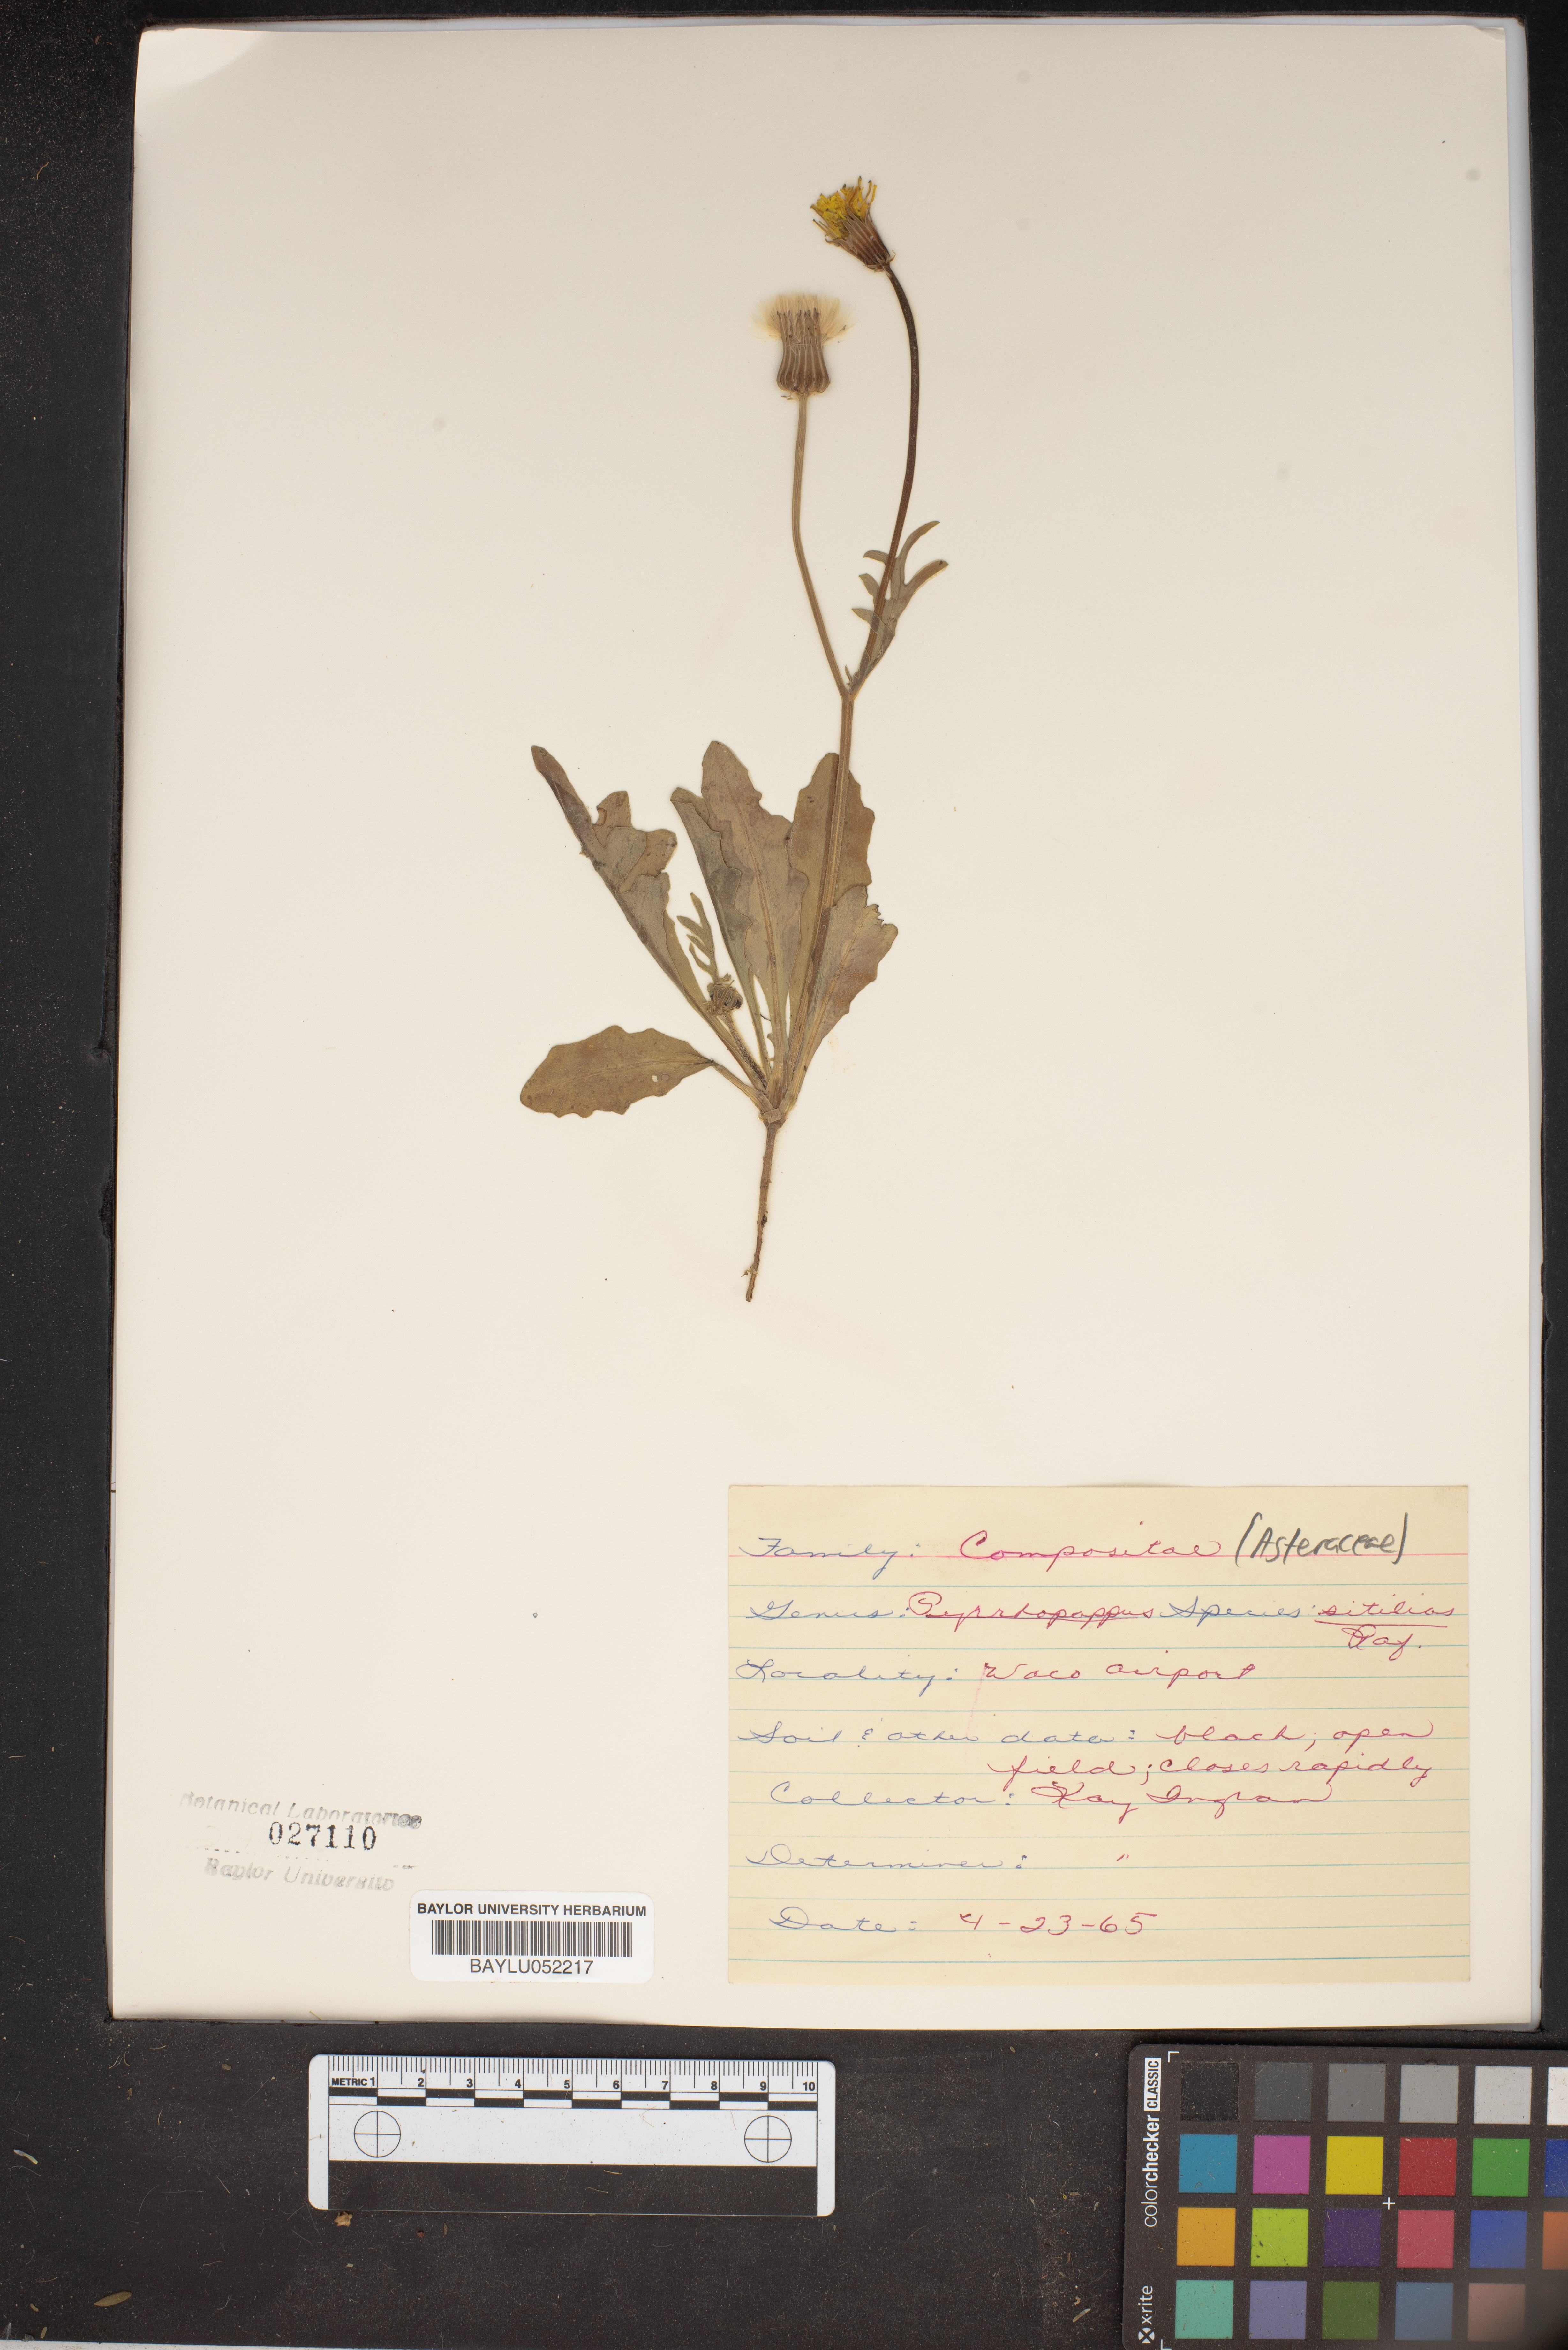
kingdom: Plantae
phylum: Tracheophyta
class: Magnoliopsida
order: Asterales
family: Asteraceae
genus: Pyrrhopappus
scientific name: Pyrrhopappus
